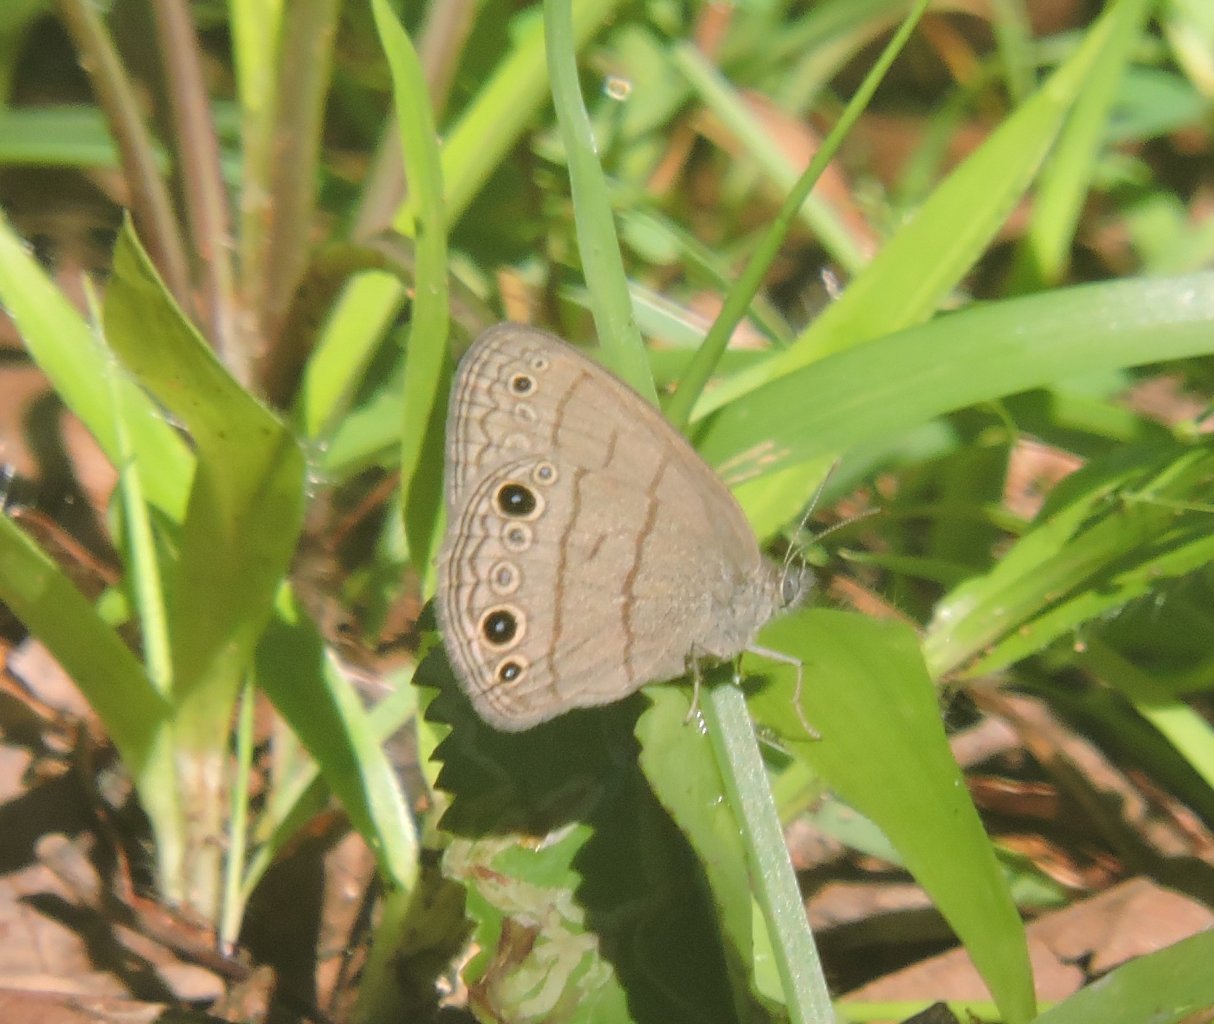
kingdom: Animalia
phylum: Arthropoda
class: Insecta
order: Lepidoptera
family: Nymphalidae
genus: Hermeuptychia
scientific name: Hermeuptychia hermes
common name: Carolina Satyr
